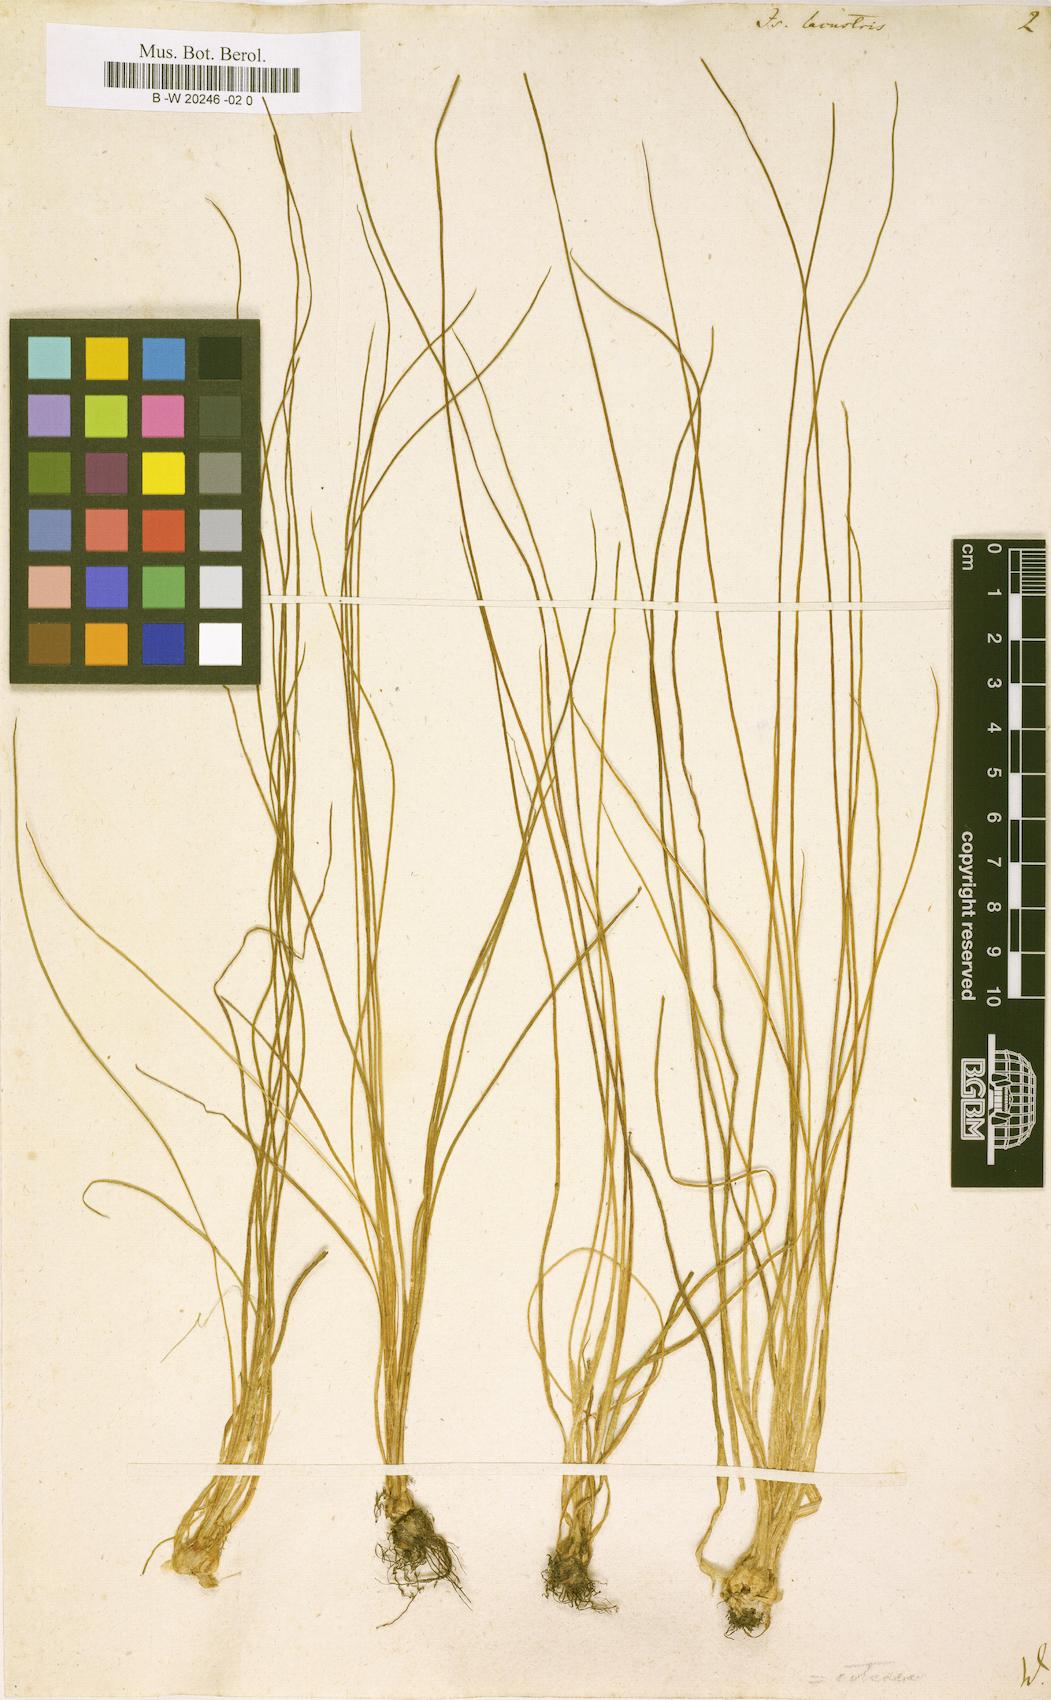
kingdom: Plantae
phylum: Tracheophyta
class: Lycopodiopsida
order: Isoetales
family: Isoetaceae
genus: Isoetes
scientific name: Isoetes lacustris
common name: Common quillwort
